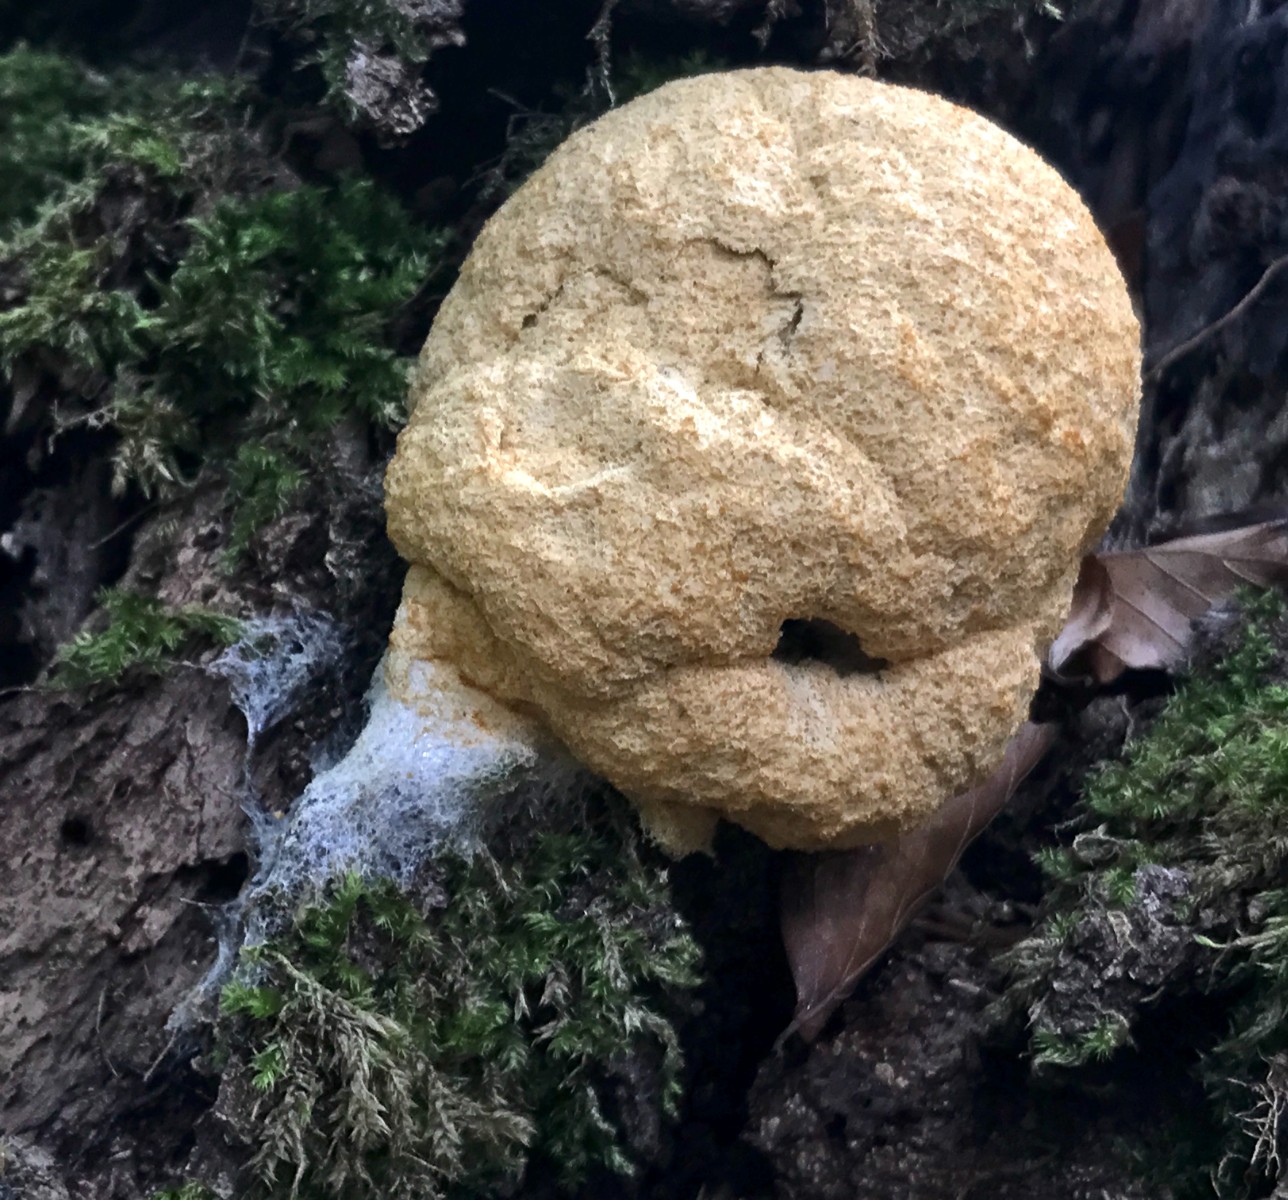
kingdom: Protozoa
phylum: Mycetozoa
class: Myxomycetes
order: Physarales
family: Physaraceae
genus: Fuligo
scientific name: Fuligo septica
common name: gul troldsmør
